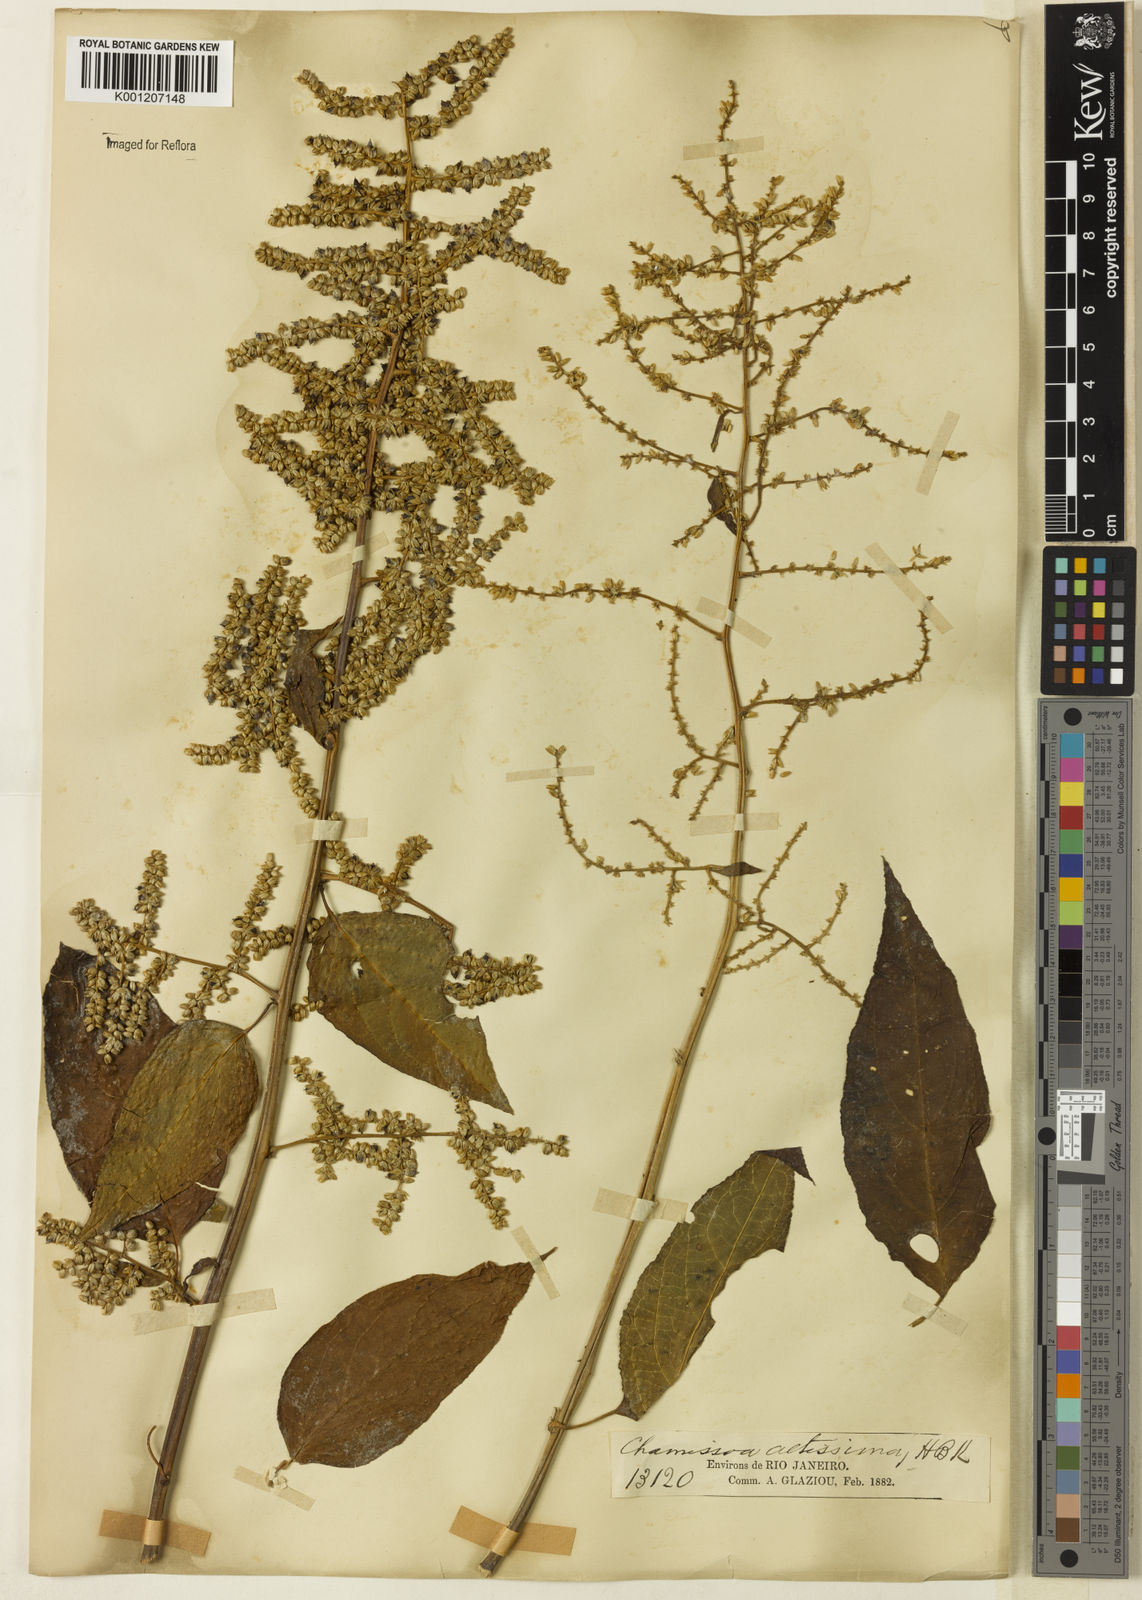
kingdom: Plantae
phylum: Tracheophyta
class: Magnoliopsida
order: Caryophyllales
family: Amaranthaceae
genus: Chamissoa
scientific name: Chamissoa altissima
